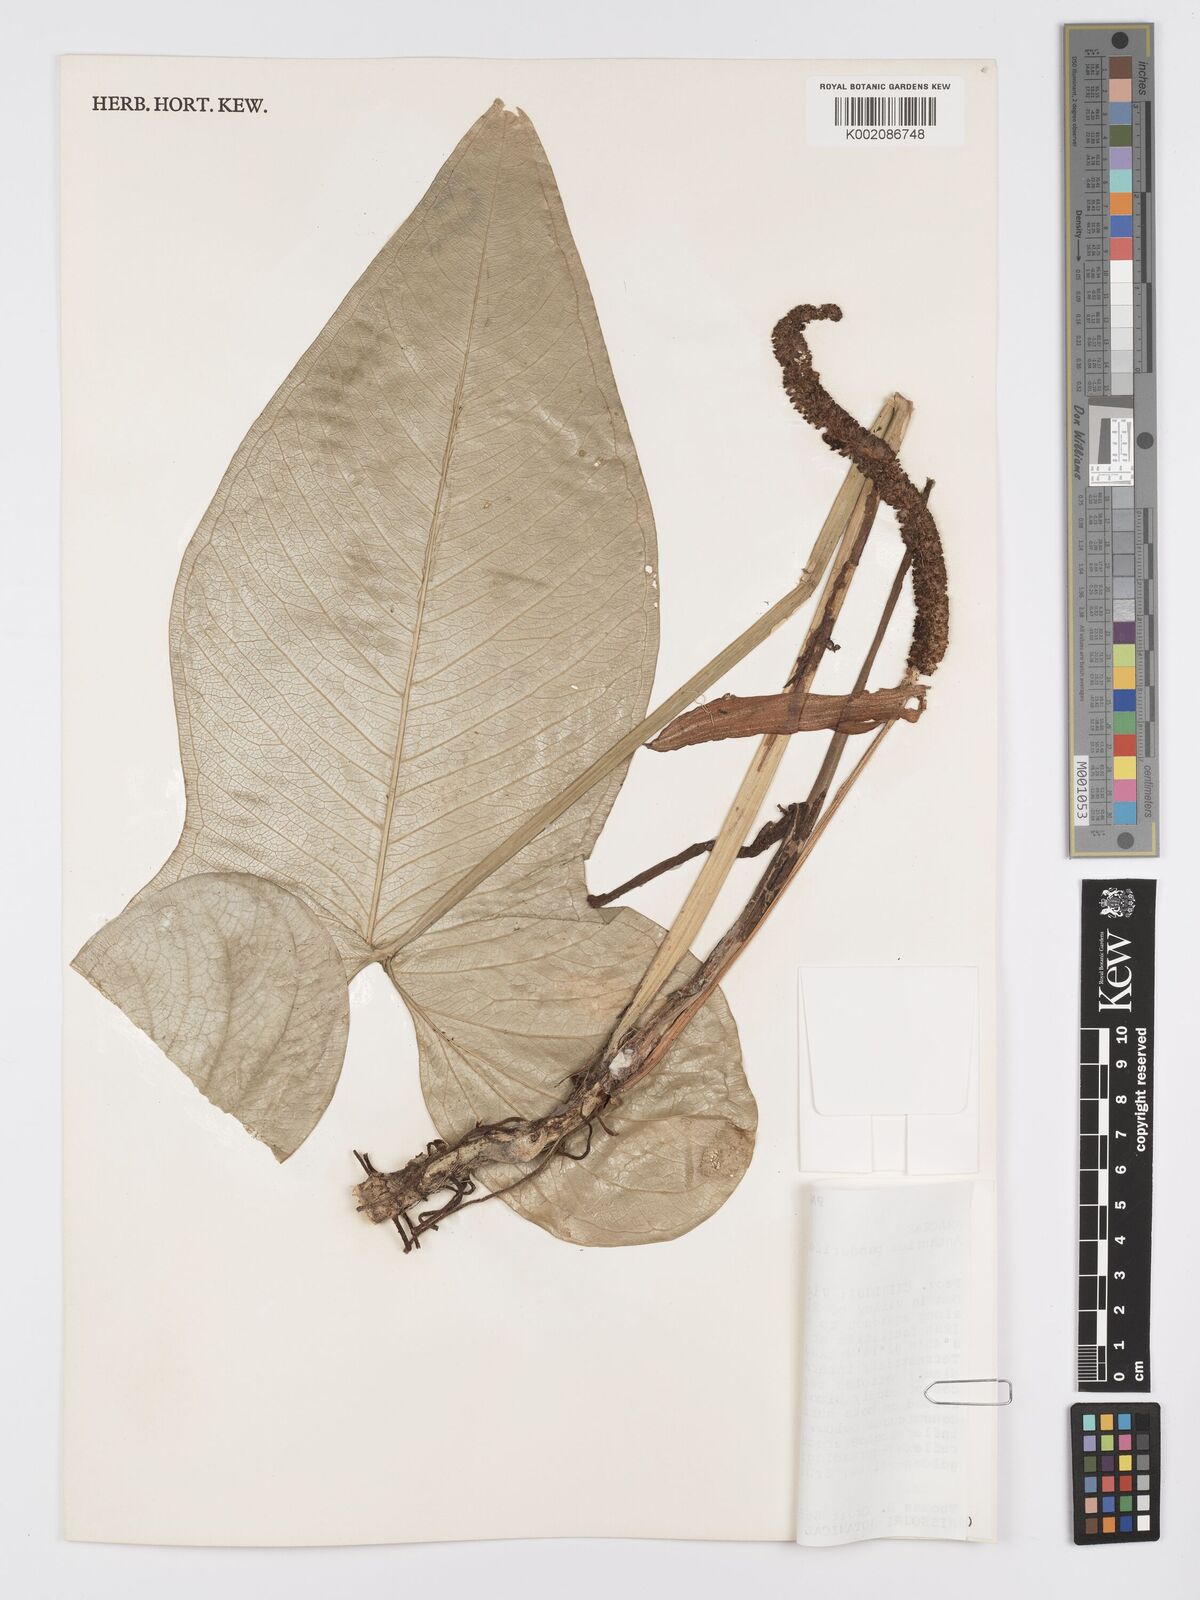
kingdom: Plantae
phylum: Tracheophyta
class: Liliopsida
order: Alismatales
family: Araceae
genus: Anthurium
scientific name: Anthurium panduriforme
